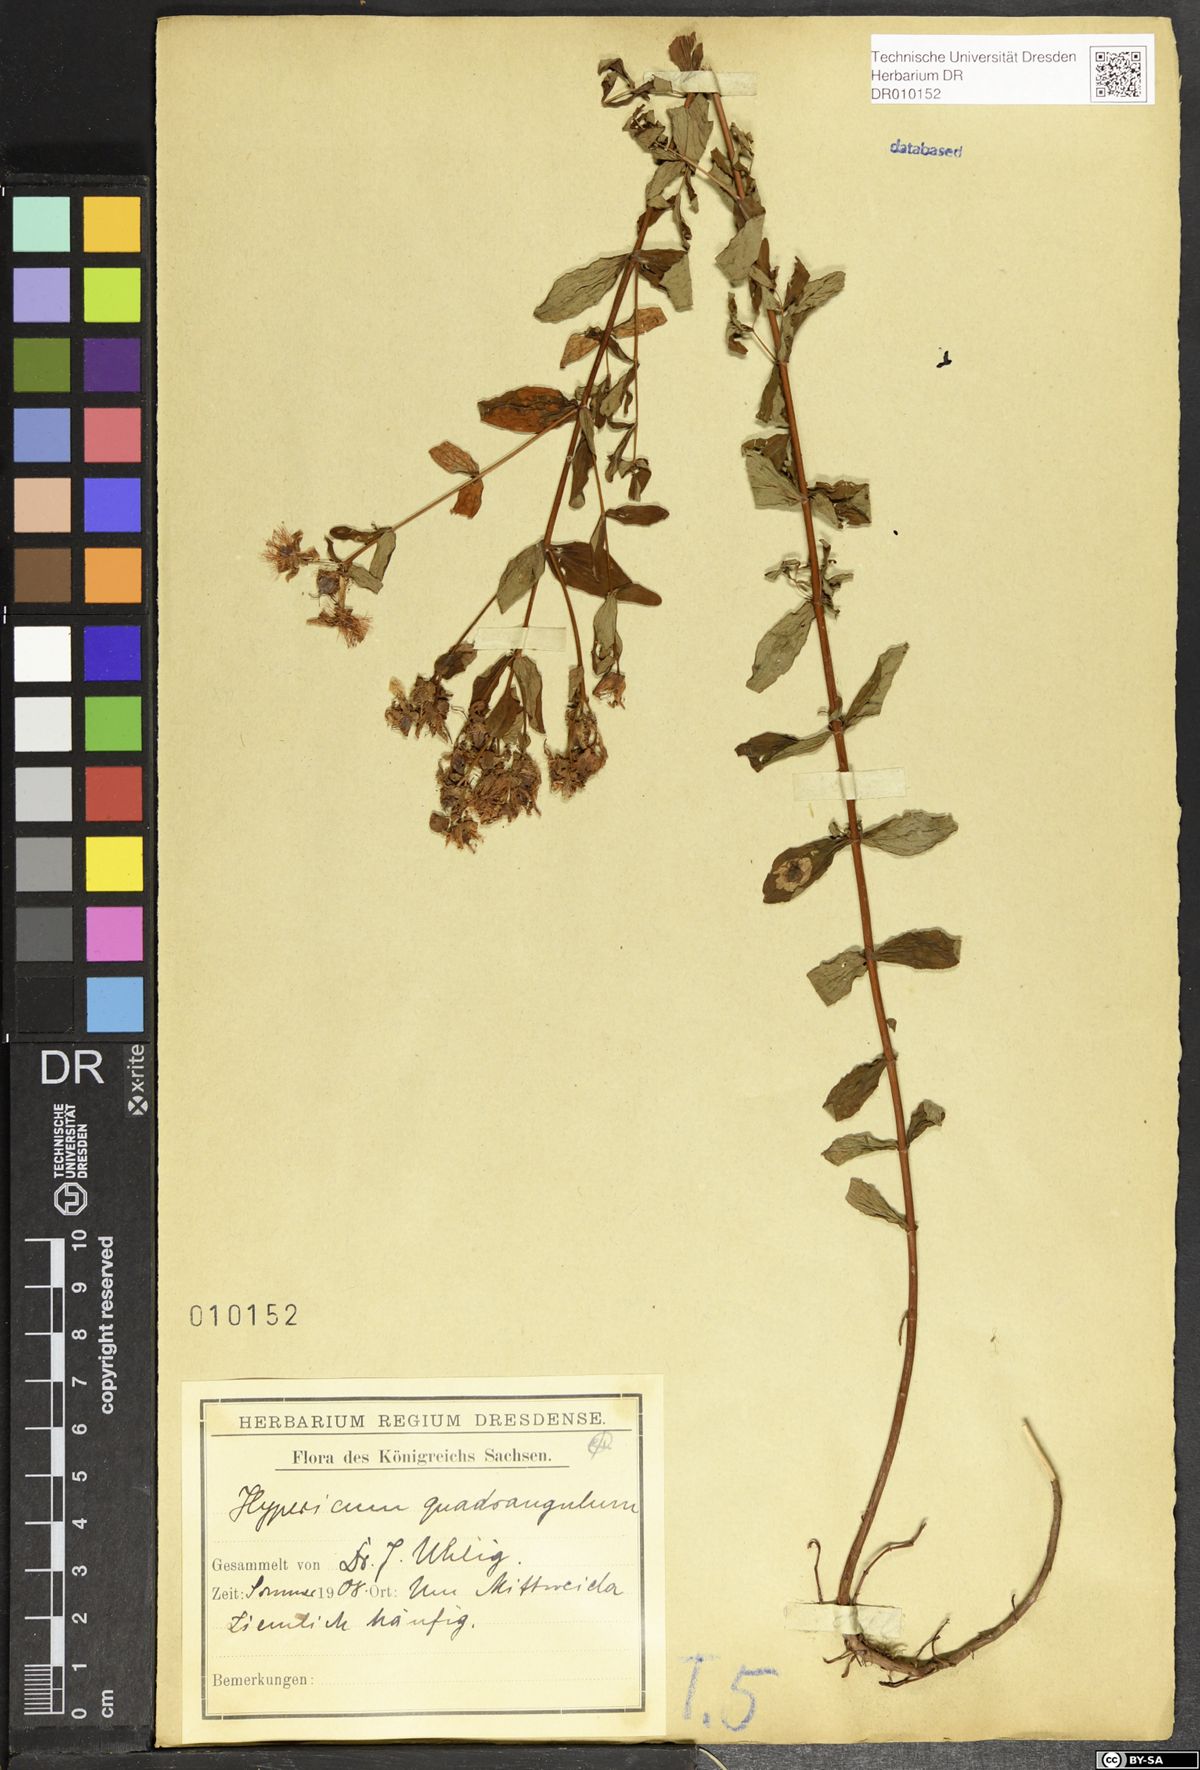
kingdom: Plantae
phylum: Tracheophyta
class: Magnoliopsida
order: Malpighiales
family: Hypericaceae
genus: Hypericum
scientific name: Hypericum maculatum
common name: Imperforate st. john's-wort
